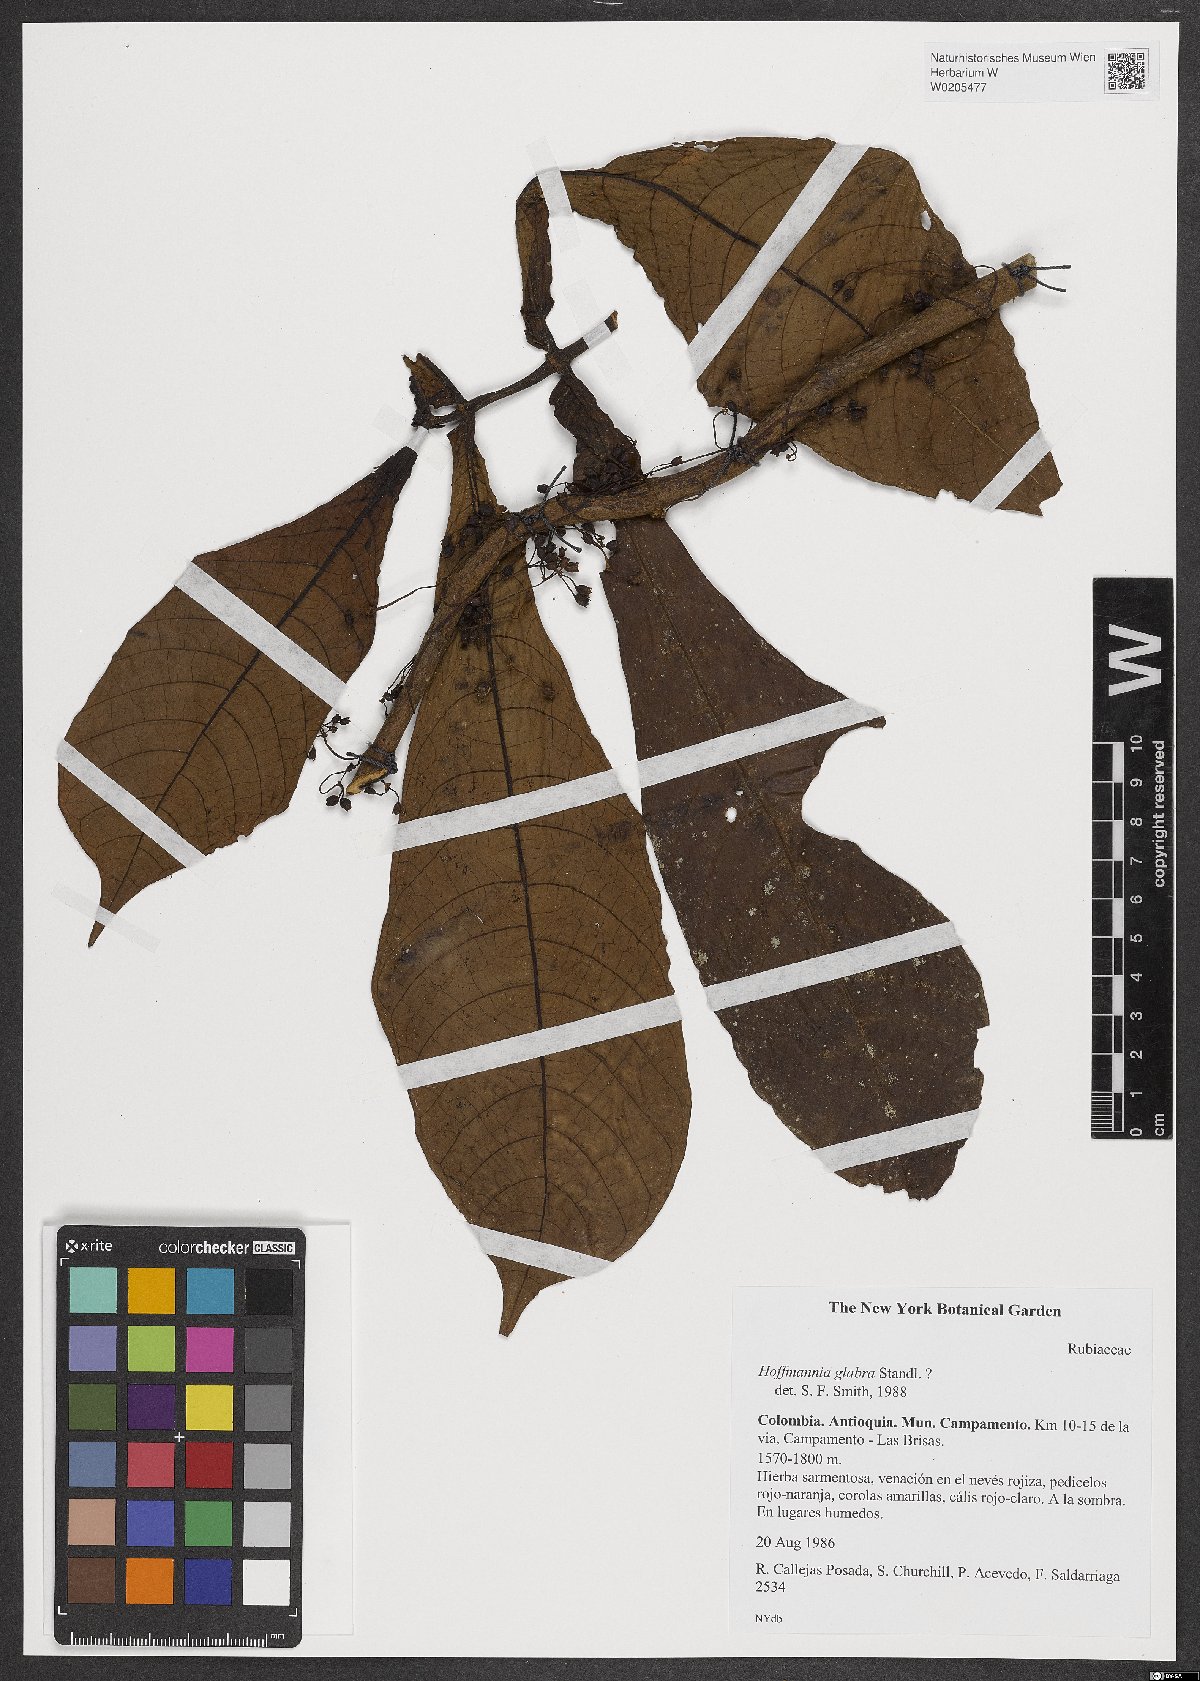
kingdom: Plantae
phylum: Tracheophyta
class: Magnoliopsida
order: Gentianales
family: Rubiaceae
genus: Hoffmannia
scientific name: Hoffmannia glabra
